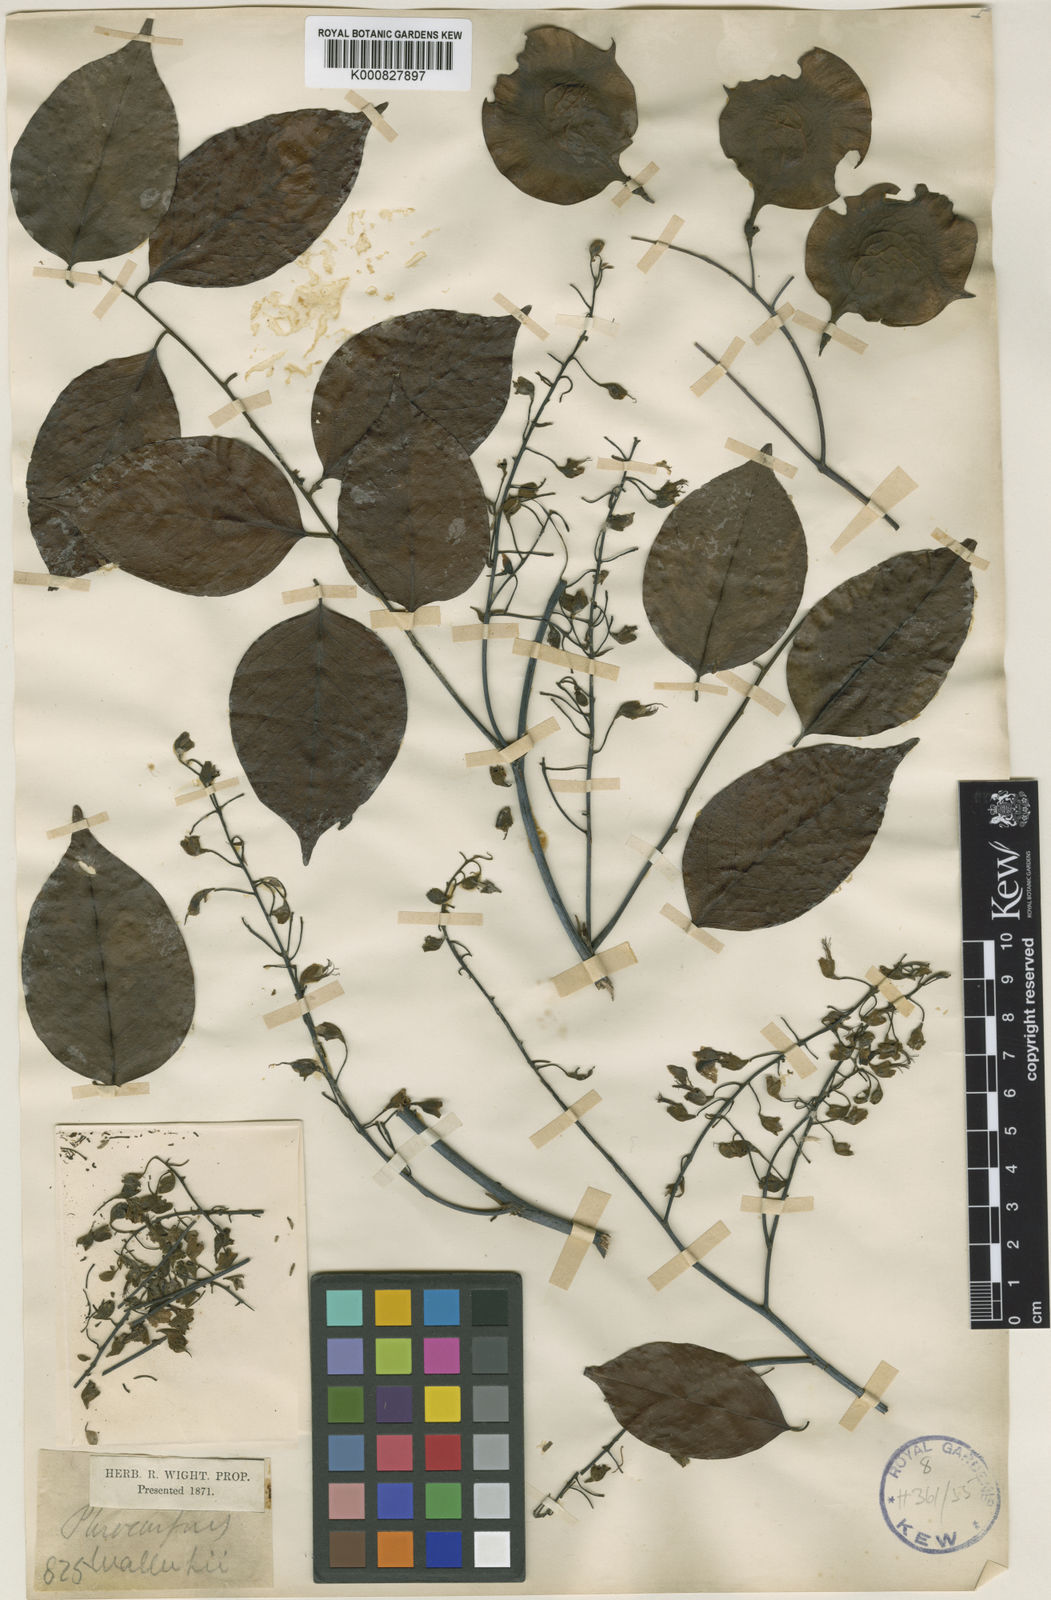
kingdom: Plantae
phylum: Tracheophyta
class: Magnoliopsida
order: Fabales
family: Fabaceae
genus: Pterocarpus
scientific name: Pterocarpus indicus
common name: Burmese rosewood
